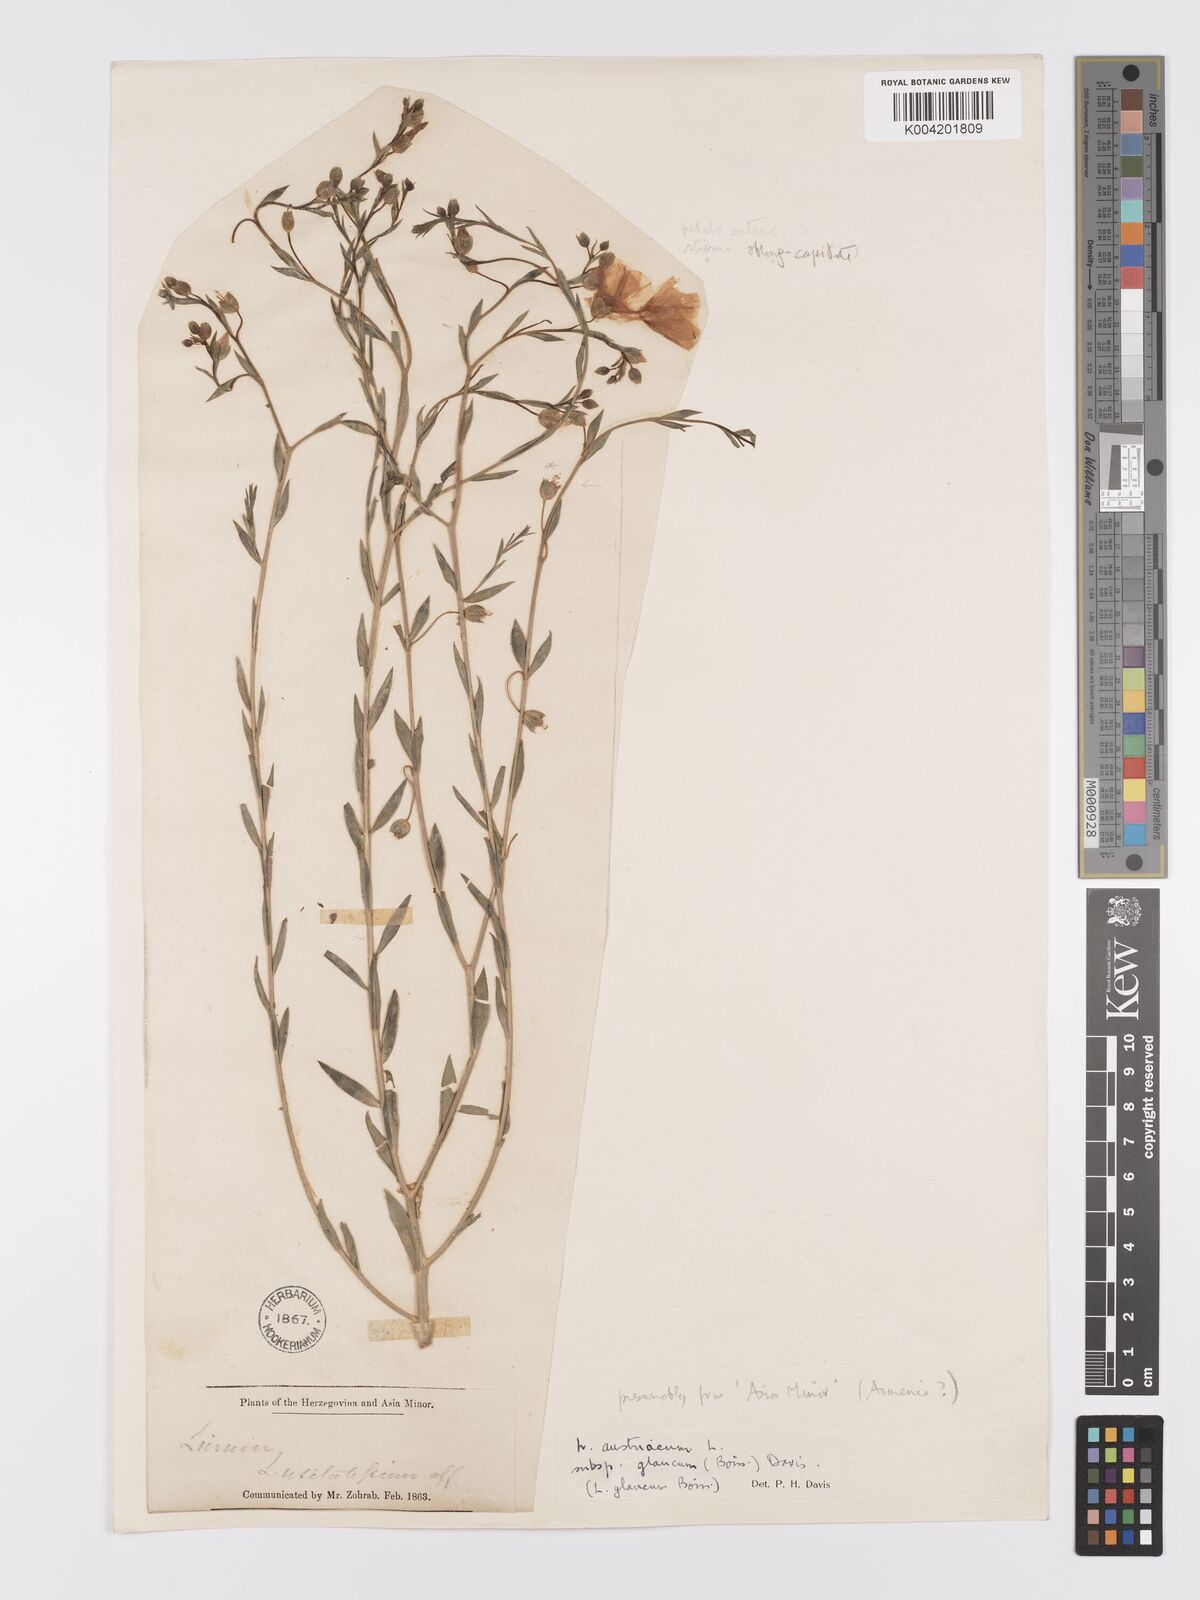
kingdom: Plantae
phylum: Tracheophyta
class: Magnoliopsida
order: Malpighiales
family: Linaceae
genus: Linum
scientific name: Linum
